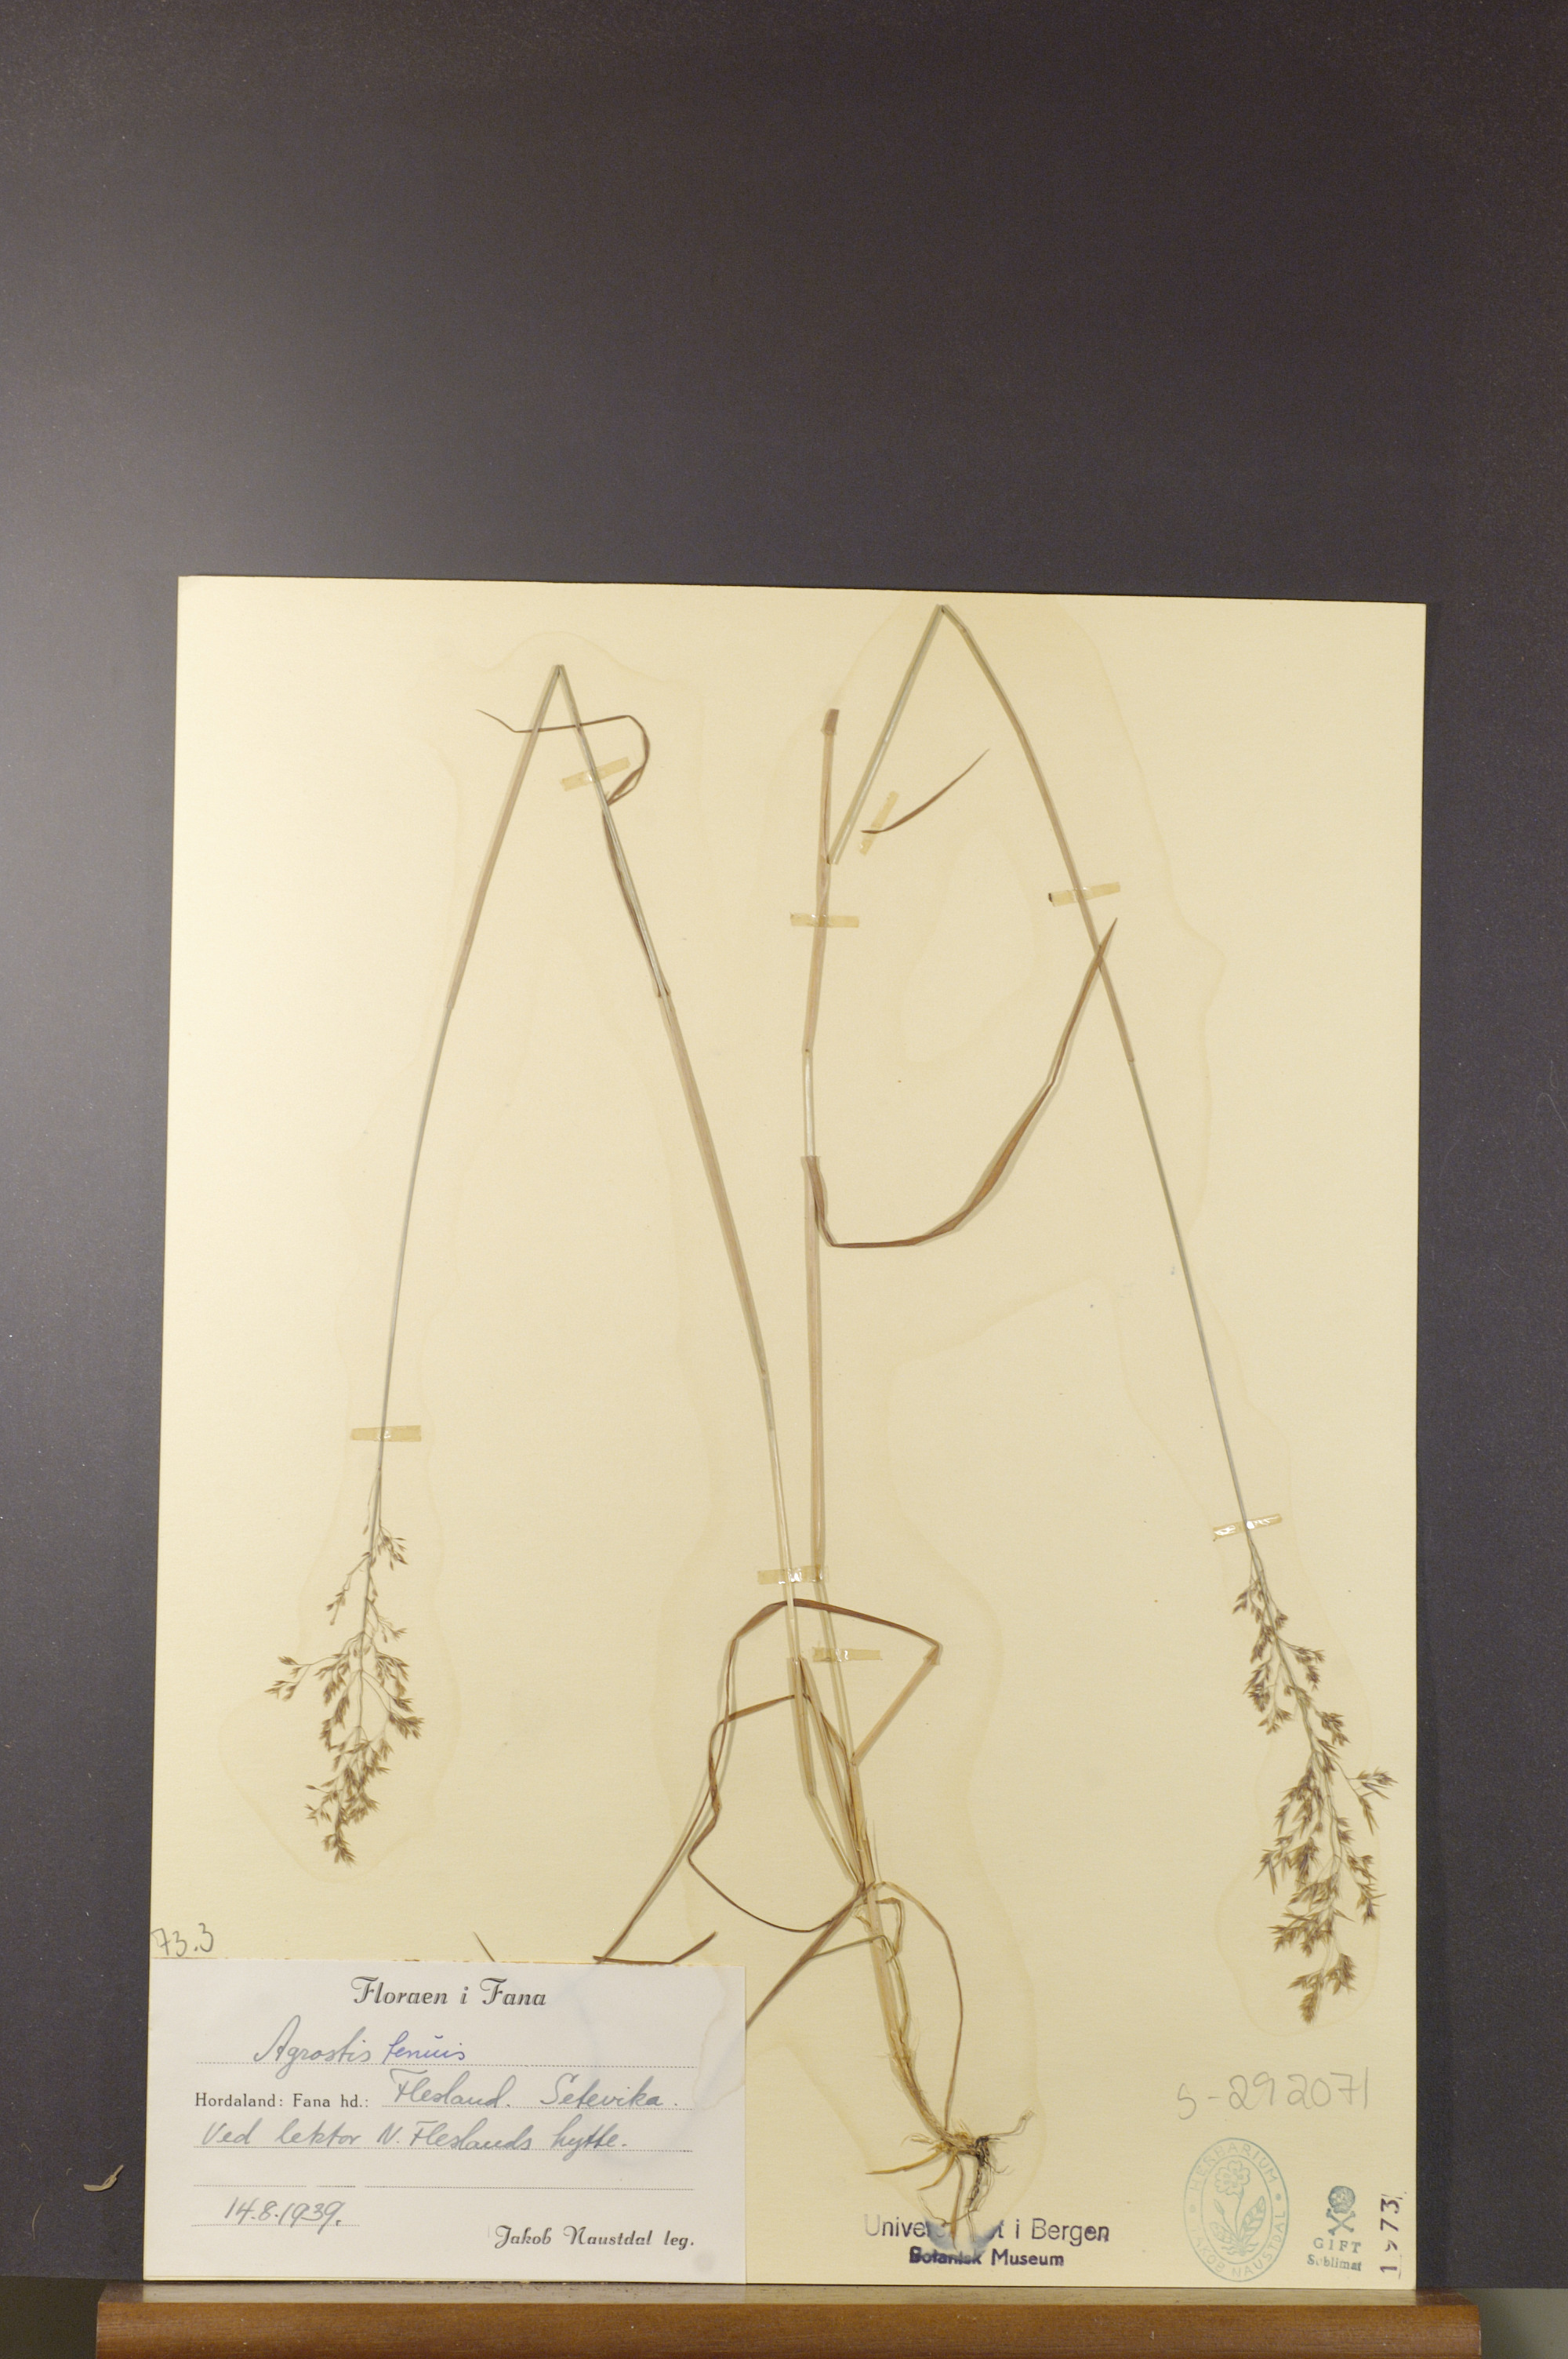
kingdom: Plantae
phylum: Tracheophyta
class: Liliopsida
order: Poales
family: Poaceae
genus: Agrostis
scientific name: Agrostis capillaris
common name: Colonial bentgrass
